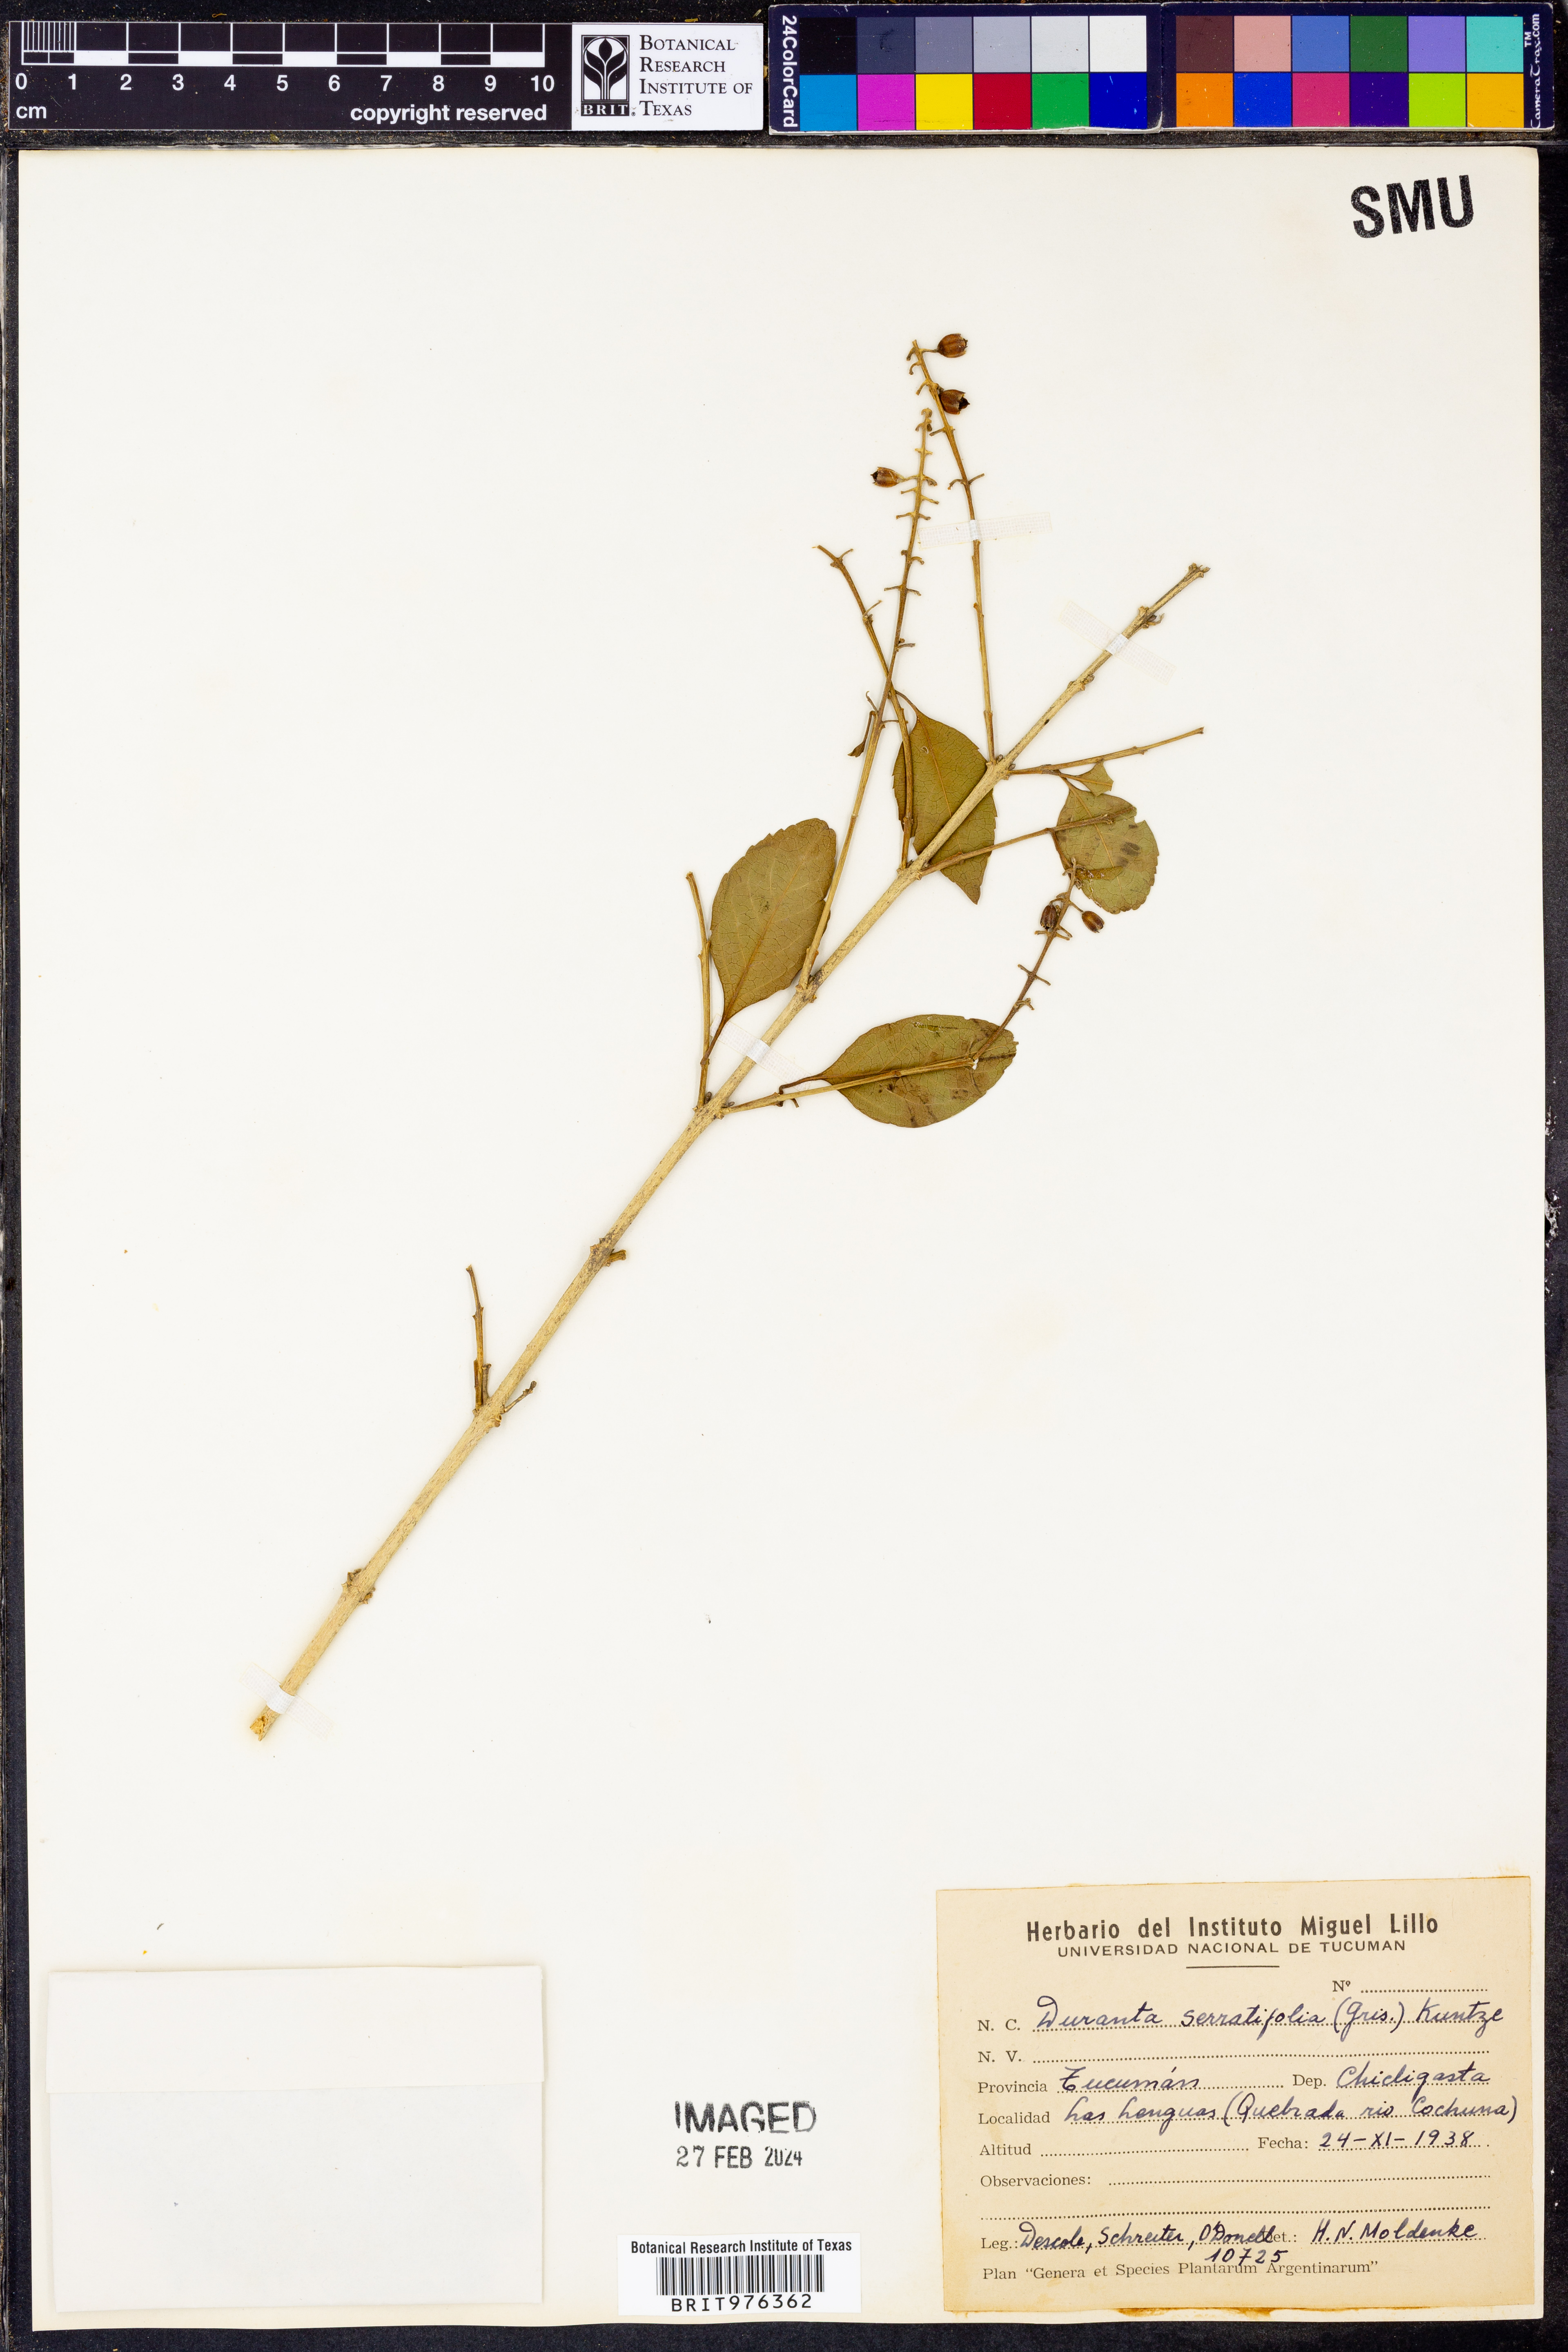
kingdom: Plantae
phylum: Tracheophyta
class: Magnoliopsida
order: Lamiales
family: Verbenaceae
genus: Duranta
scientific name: Duranta
